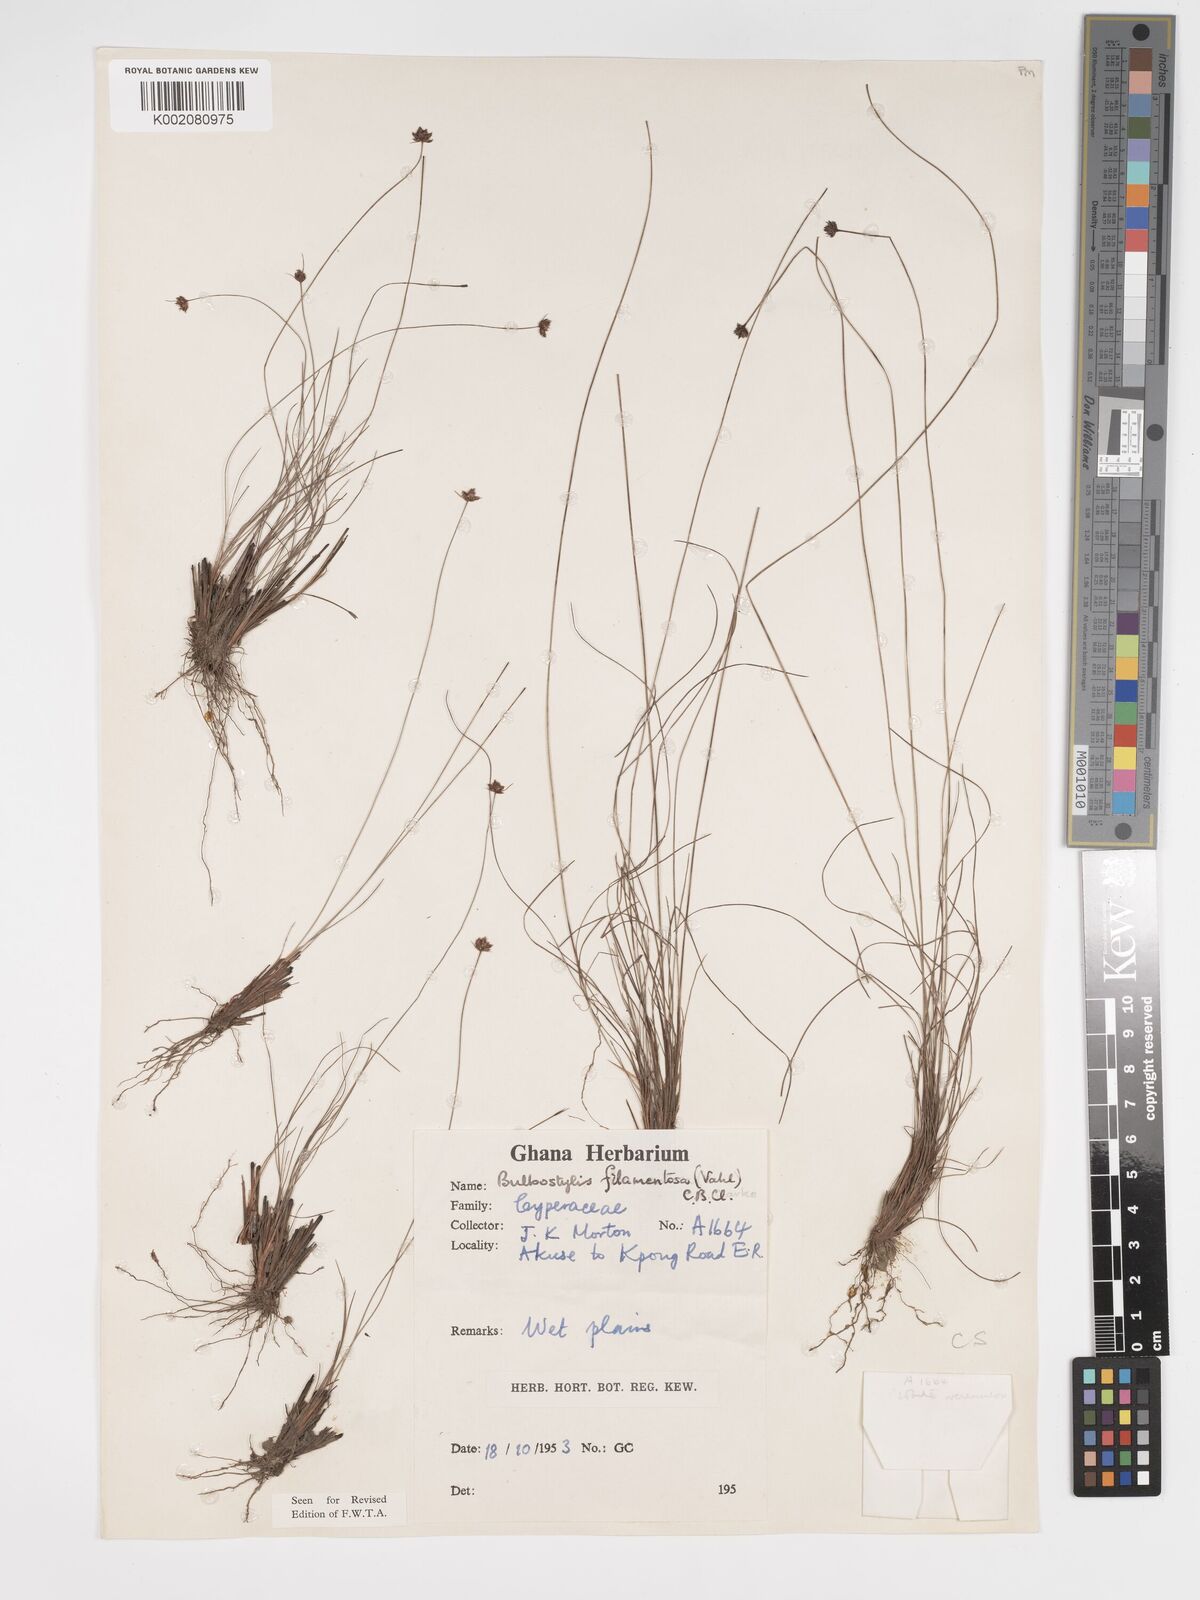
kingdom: Plantae
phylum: Tracheophyta
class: Liliopsida
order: Poales
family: Cyperaceae
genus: Bulbostylis
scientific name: Bulbostylis filamentosa
